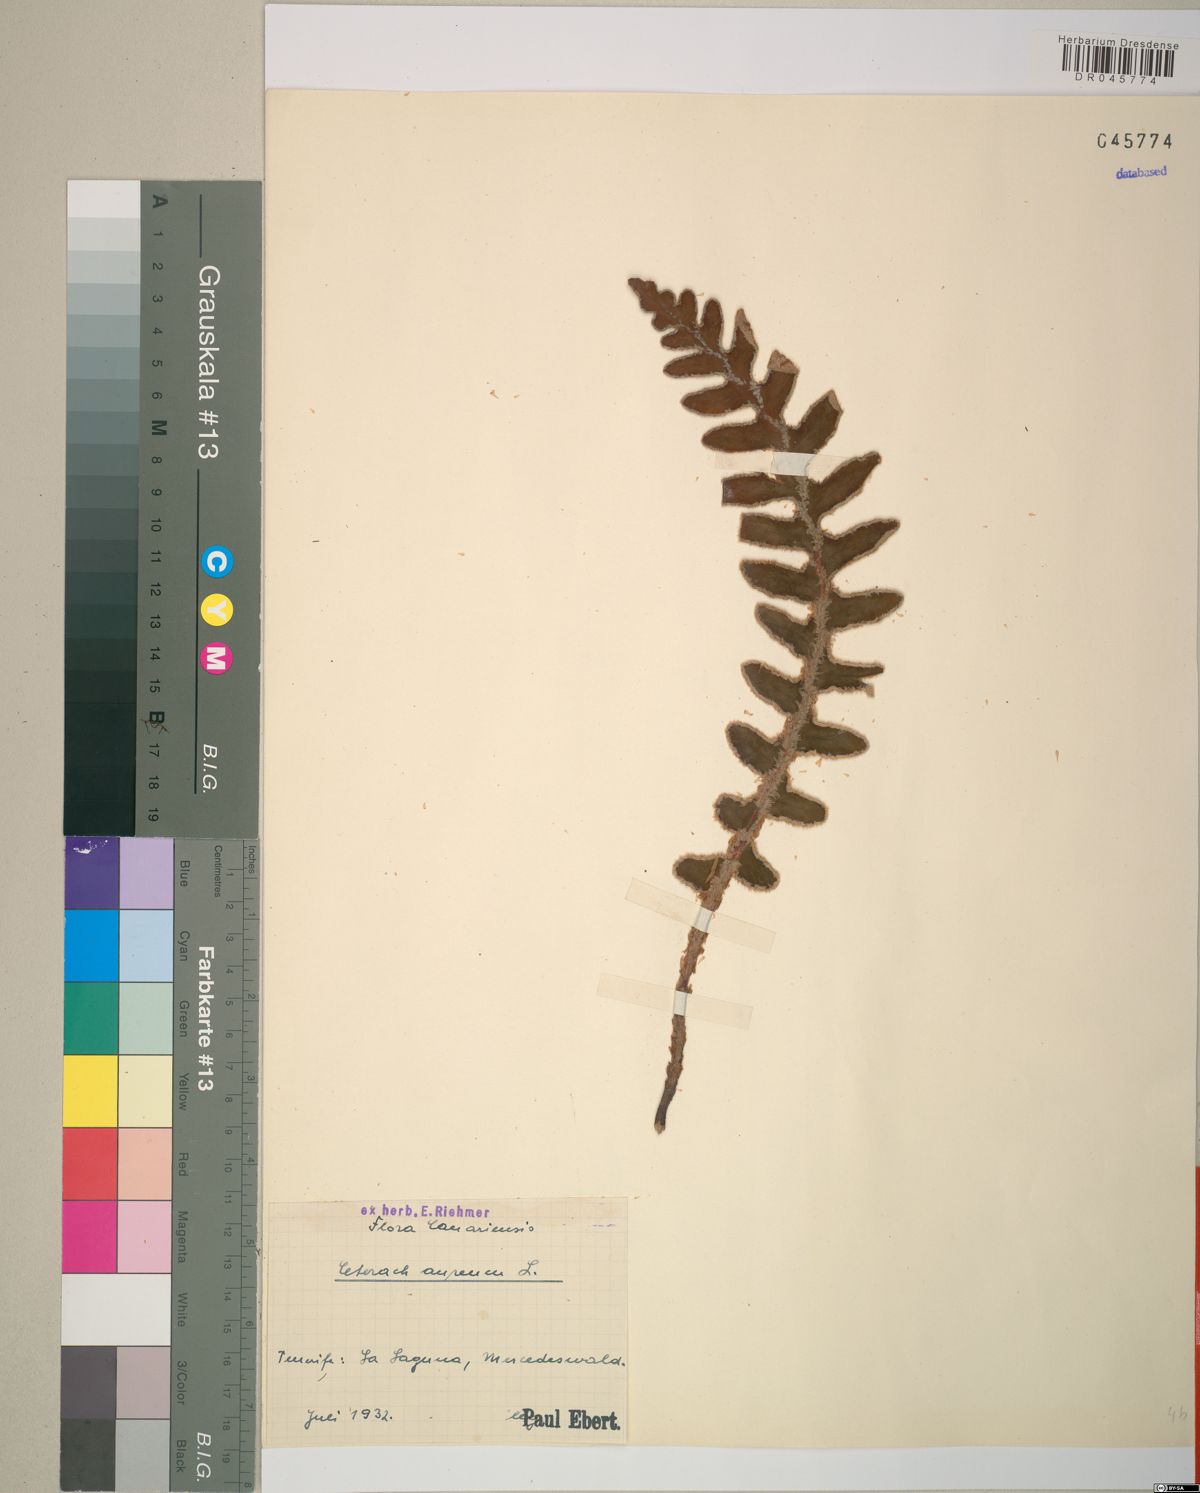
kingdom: Plantae
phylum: Tracheophyta
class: Polypodiopsida
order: Polypodiales
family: Aspleniaceae
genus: Asplenium
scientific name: Asplenium aureum
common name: Golden rustyback fern
